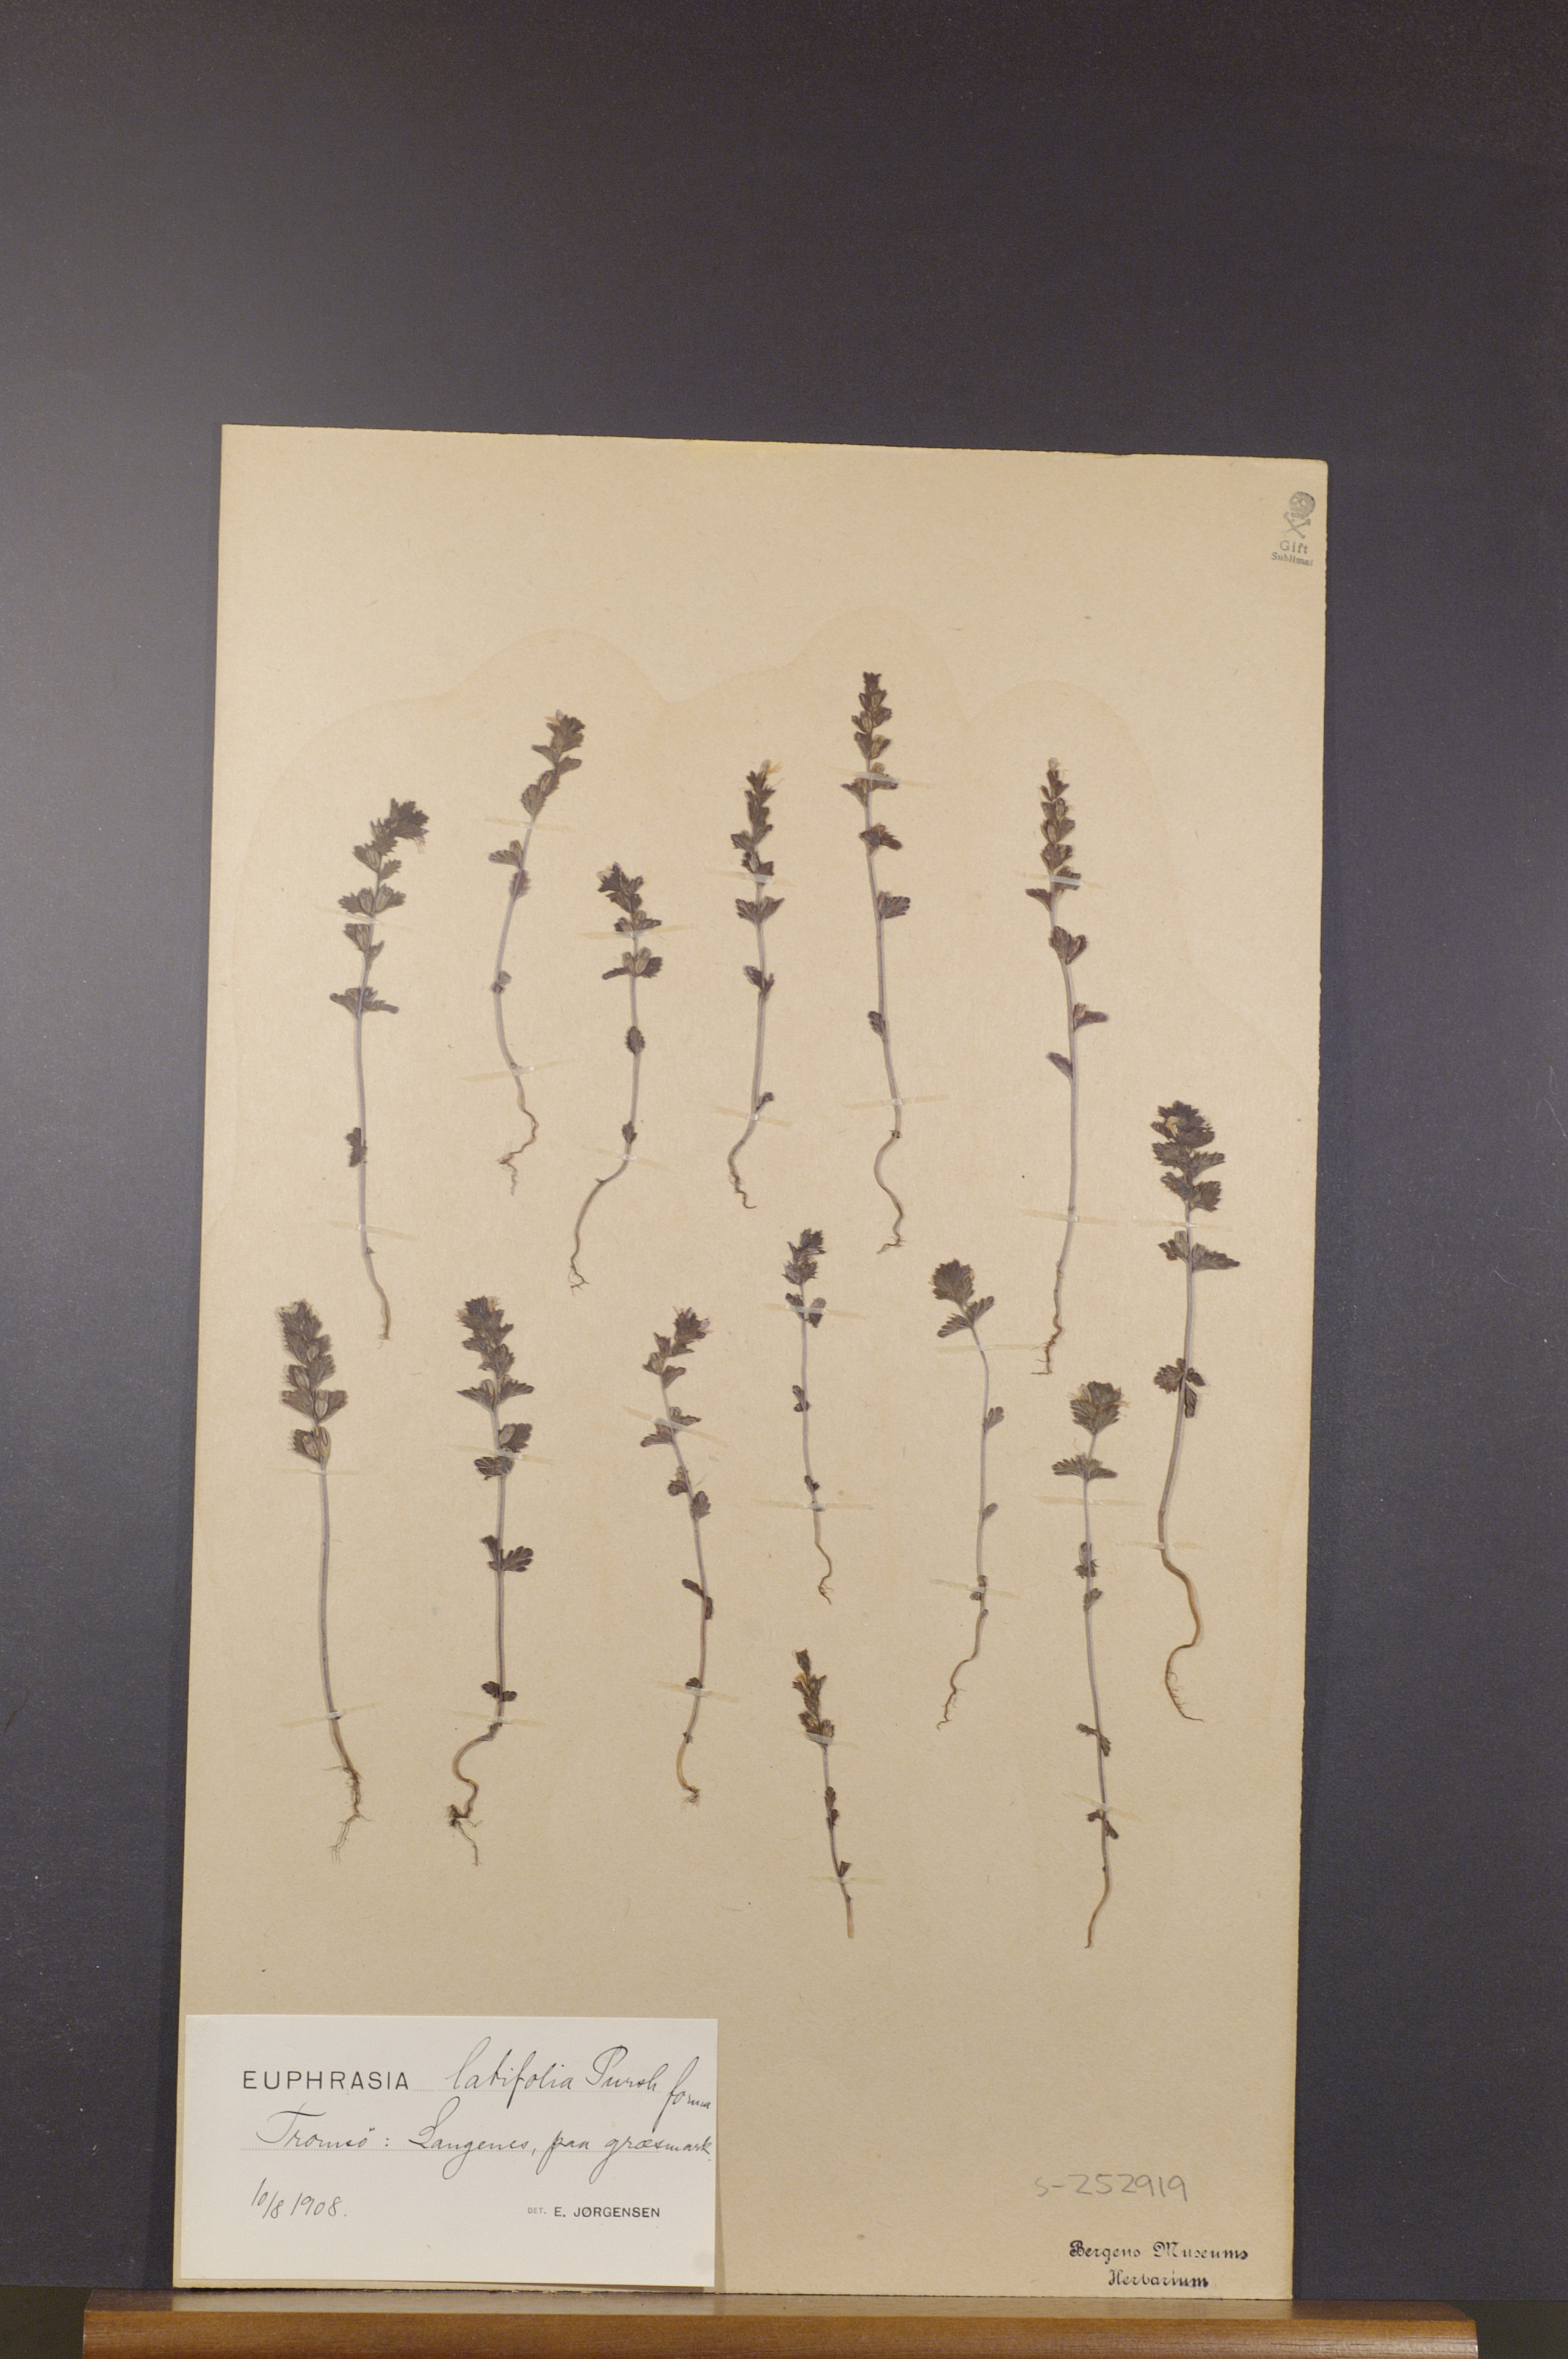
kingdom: Plantae
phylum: Tracheophyta
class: Magnoliopsida
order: Lamiales
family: Orobanchaceae
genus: Euphrasia
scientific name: Euphrasia wettsteinii
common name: Wettstein's eyebright
